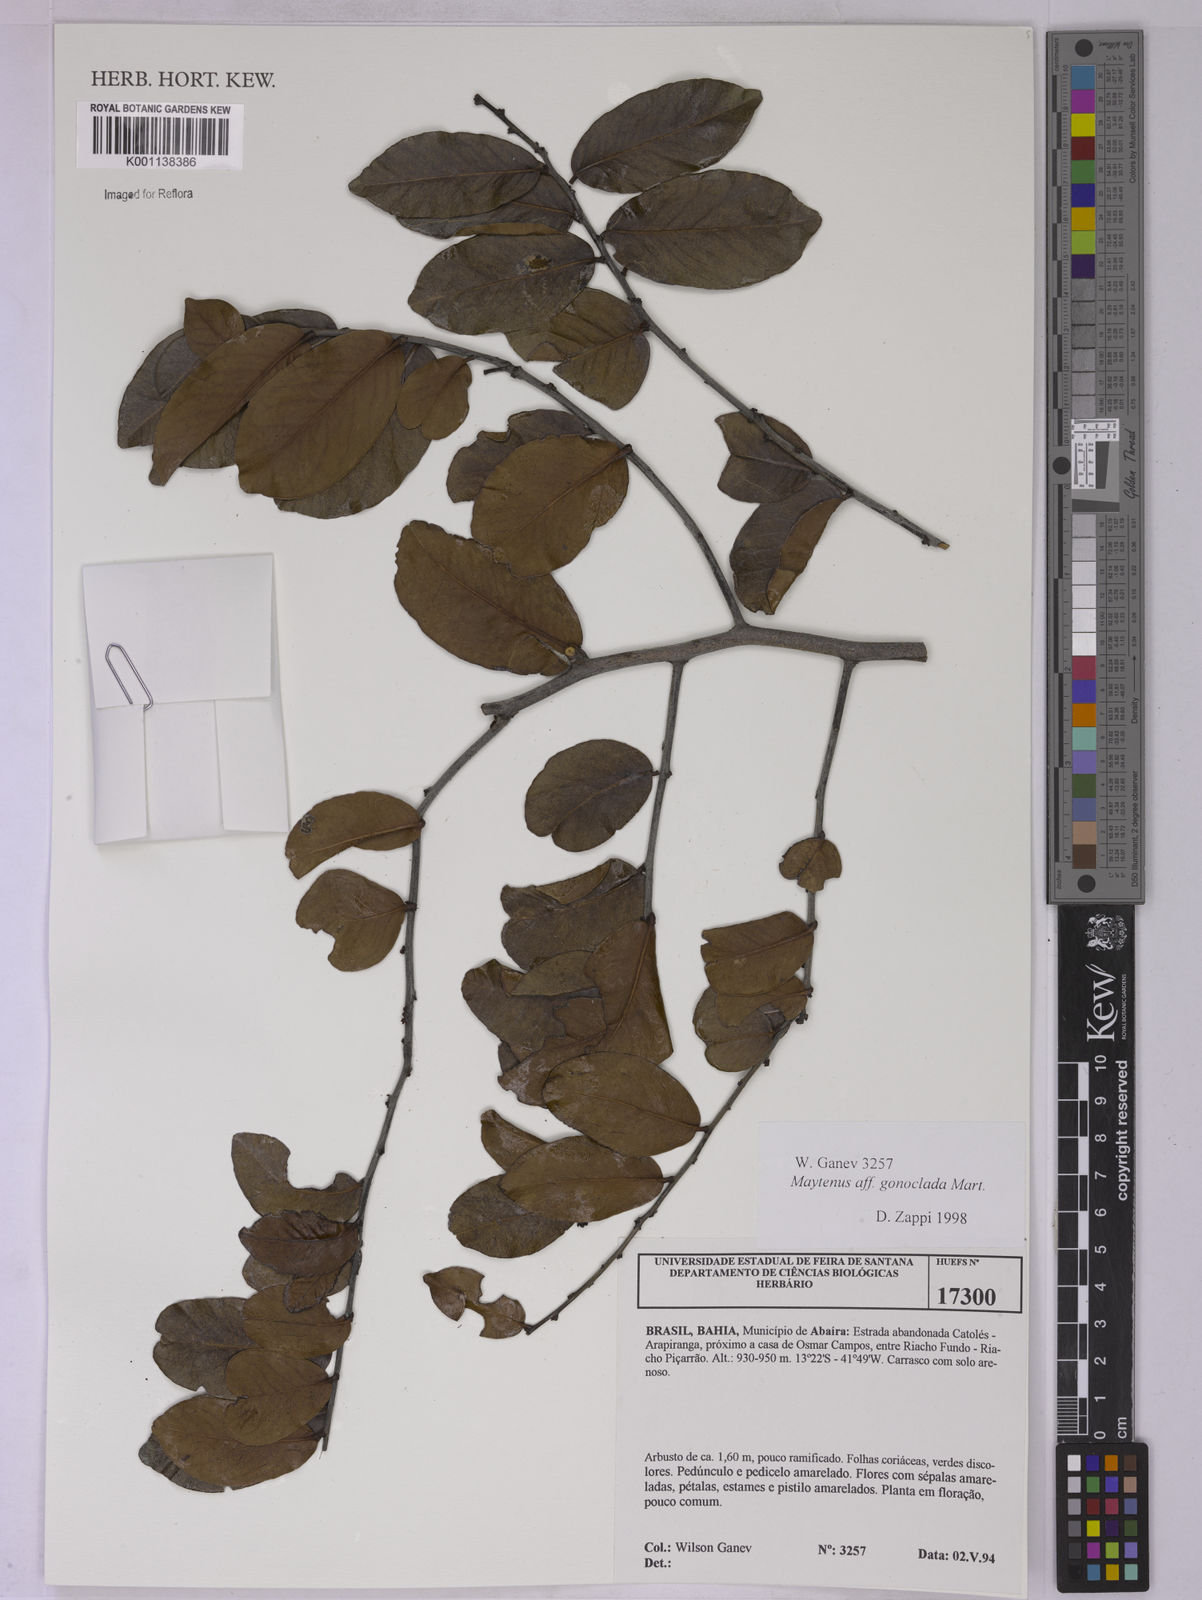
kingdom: Plantae
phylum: Tracheophyta
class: Magnoliopsida
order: Celastrales
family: Celastraceae
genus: Monteverdia
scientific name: Monteverdia gonoclada
